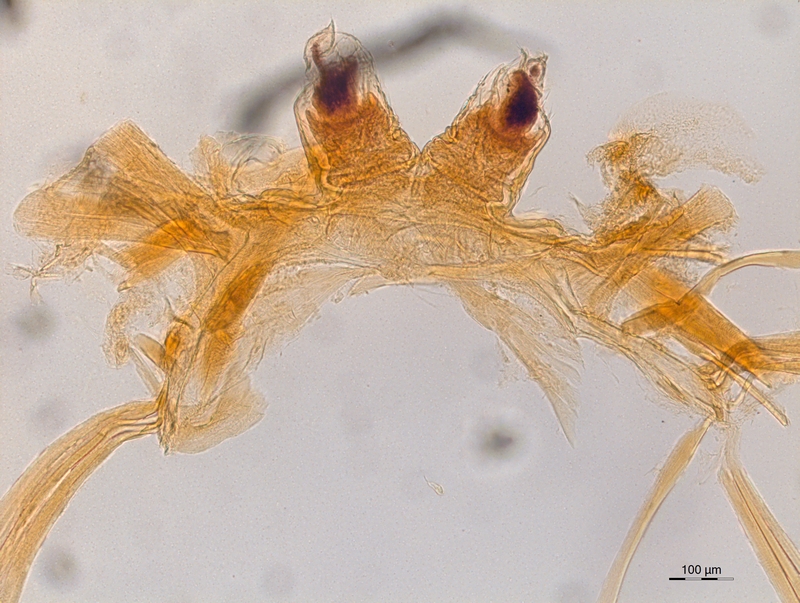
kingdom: Animalia
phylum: Arthropoda
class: Diplopoda
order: Chordeumatida
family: Craspedosomatidae
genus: Atractosoma
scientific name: Atractosoma meridionale
